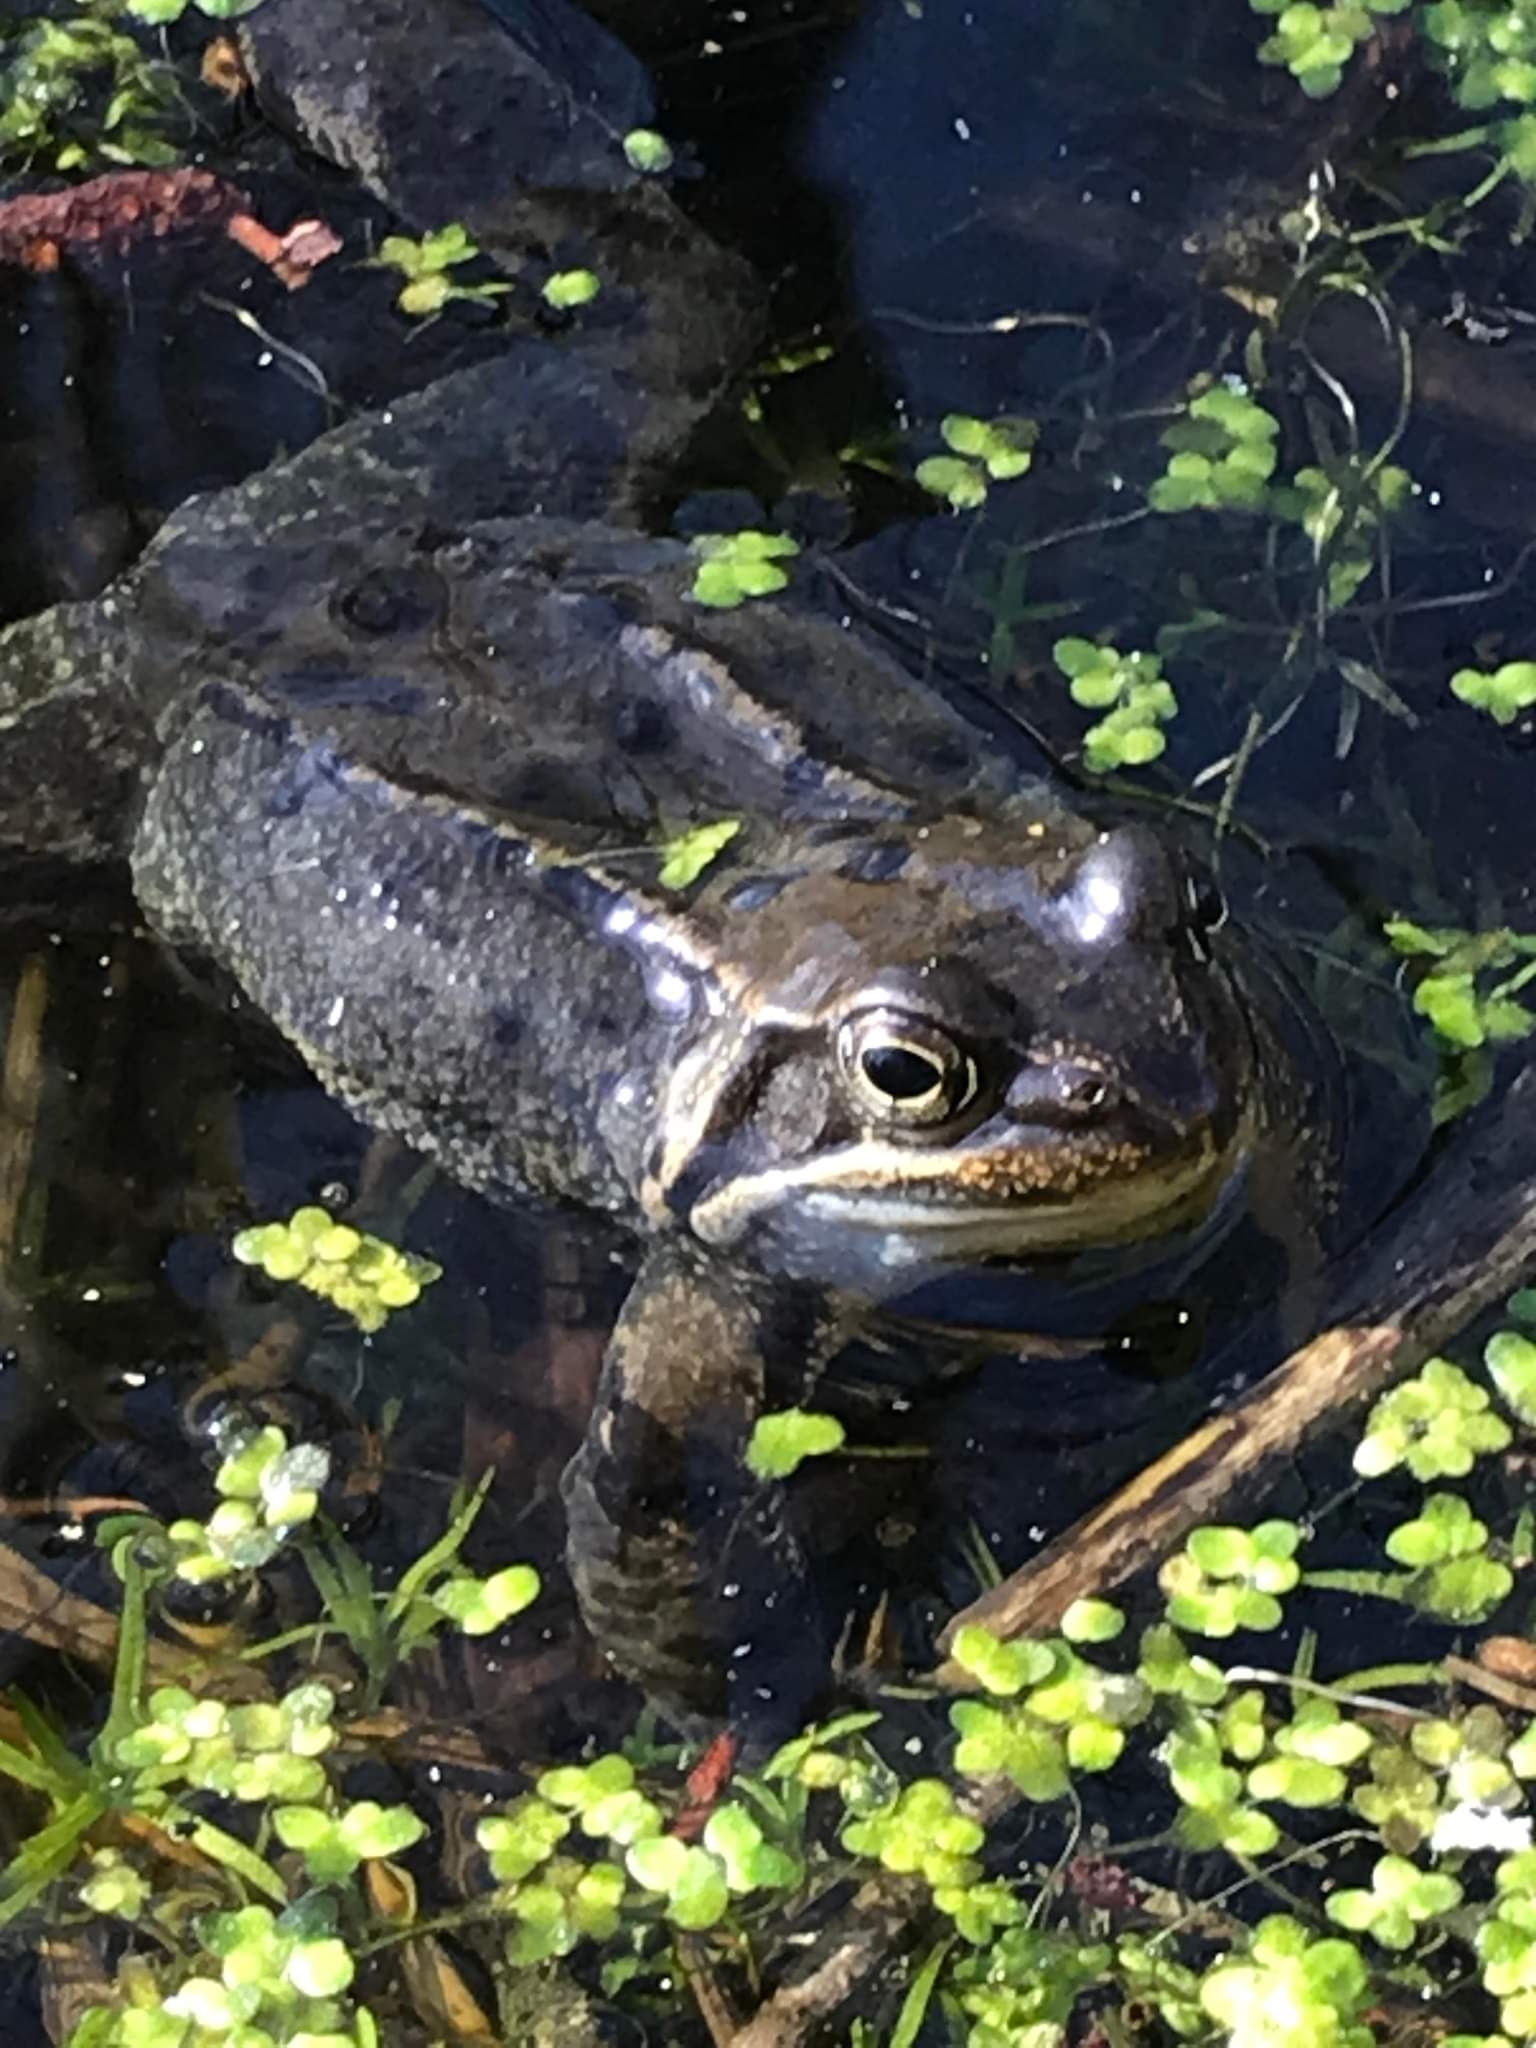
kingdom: Animalia
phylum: Chordata
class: Amphibia
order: Anura
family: Ranidae
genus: Rana
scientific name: Rana temporaria
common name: Butsnudet frø
